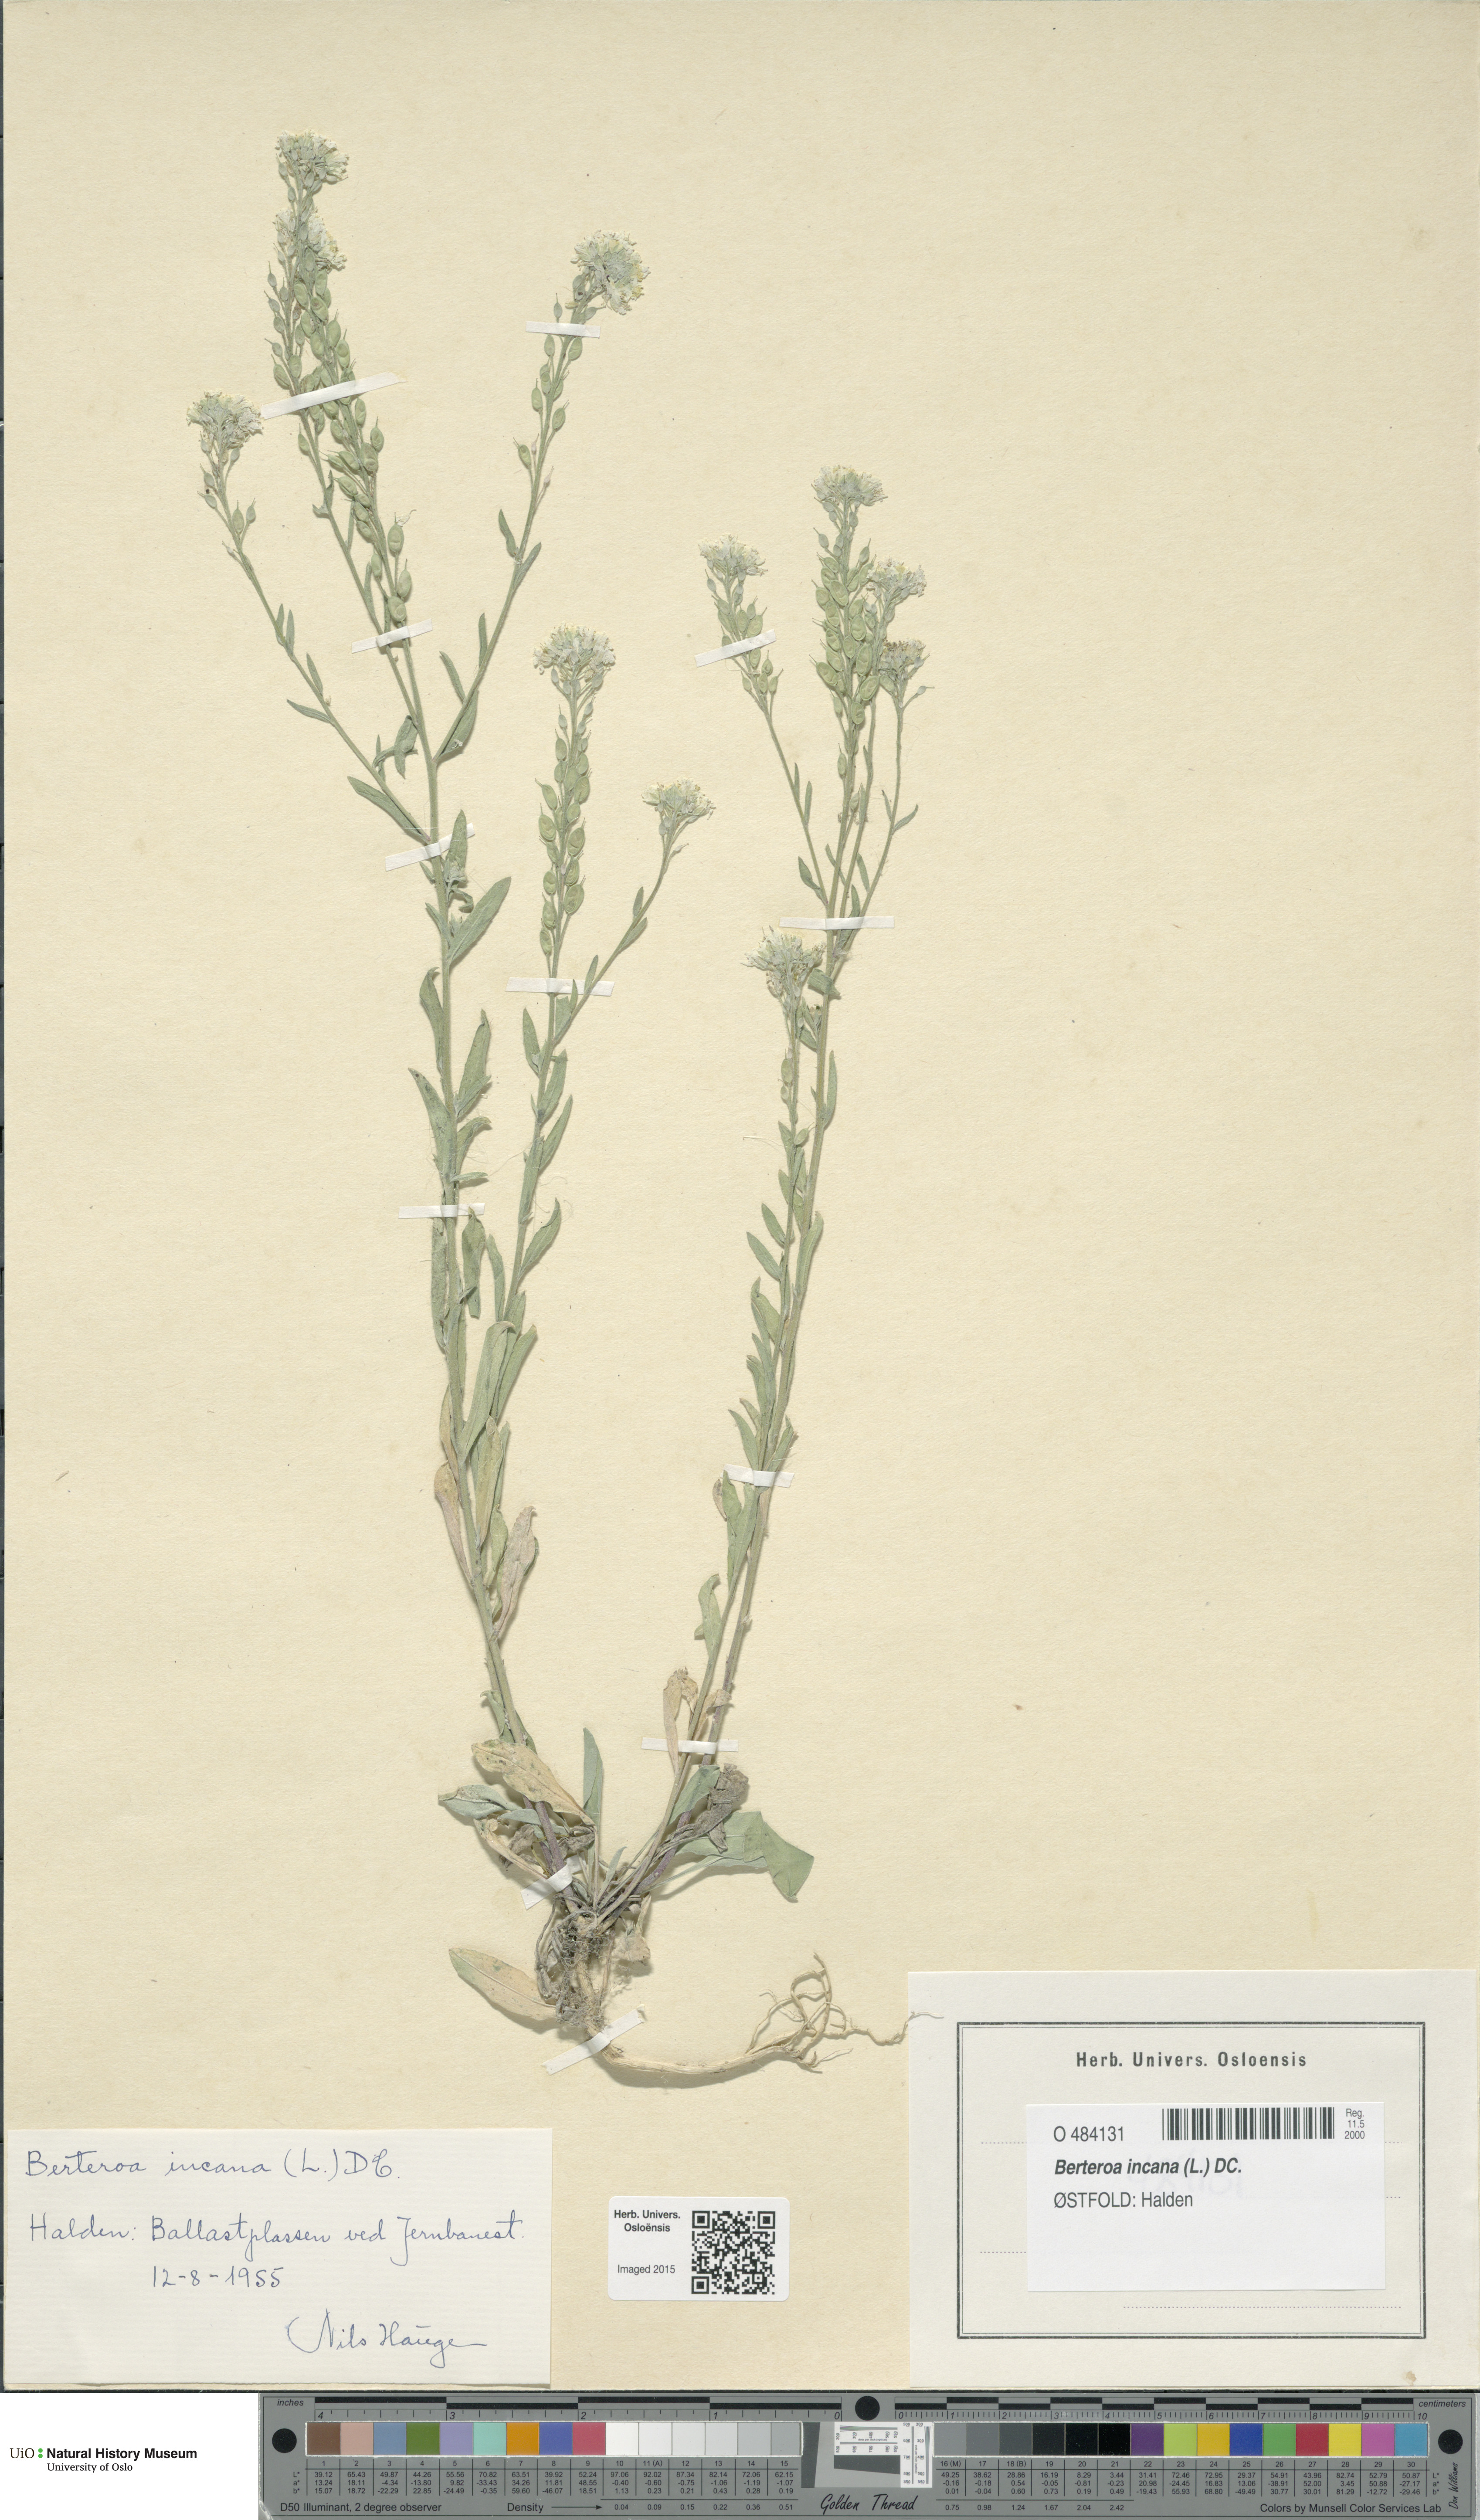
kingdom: Plantae
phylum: Tracheophyta
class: Magnoliopsida
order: Brassicales
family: Brassicaceae
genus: Berteroa
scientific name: Berteroa incana
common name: Hoary alison
